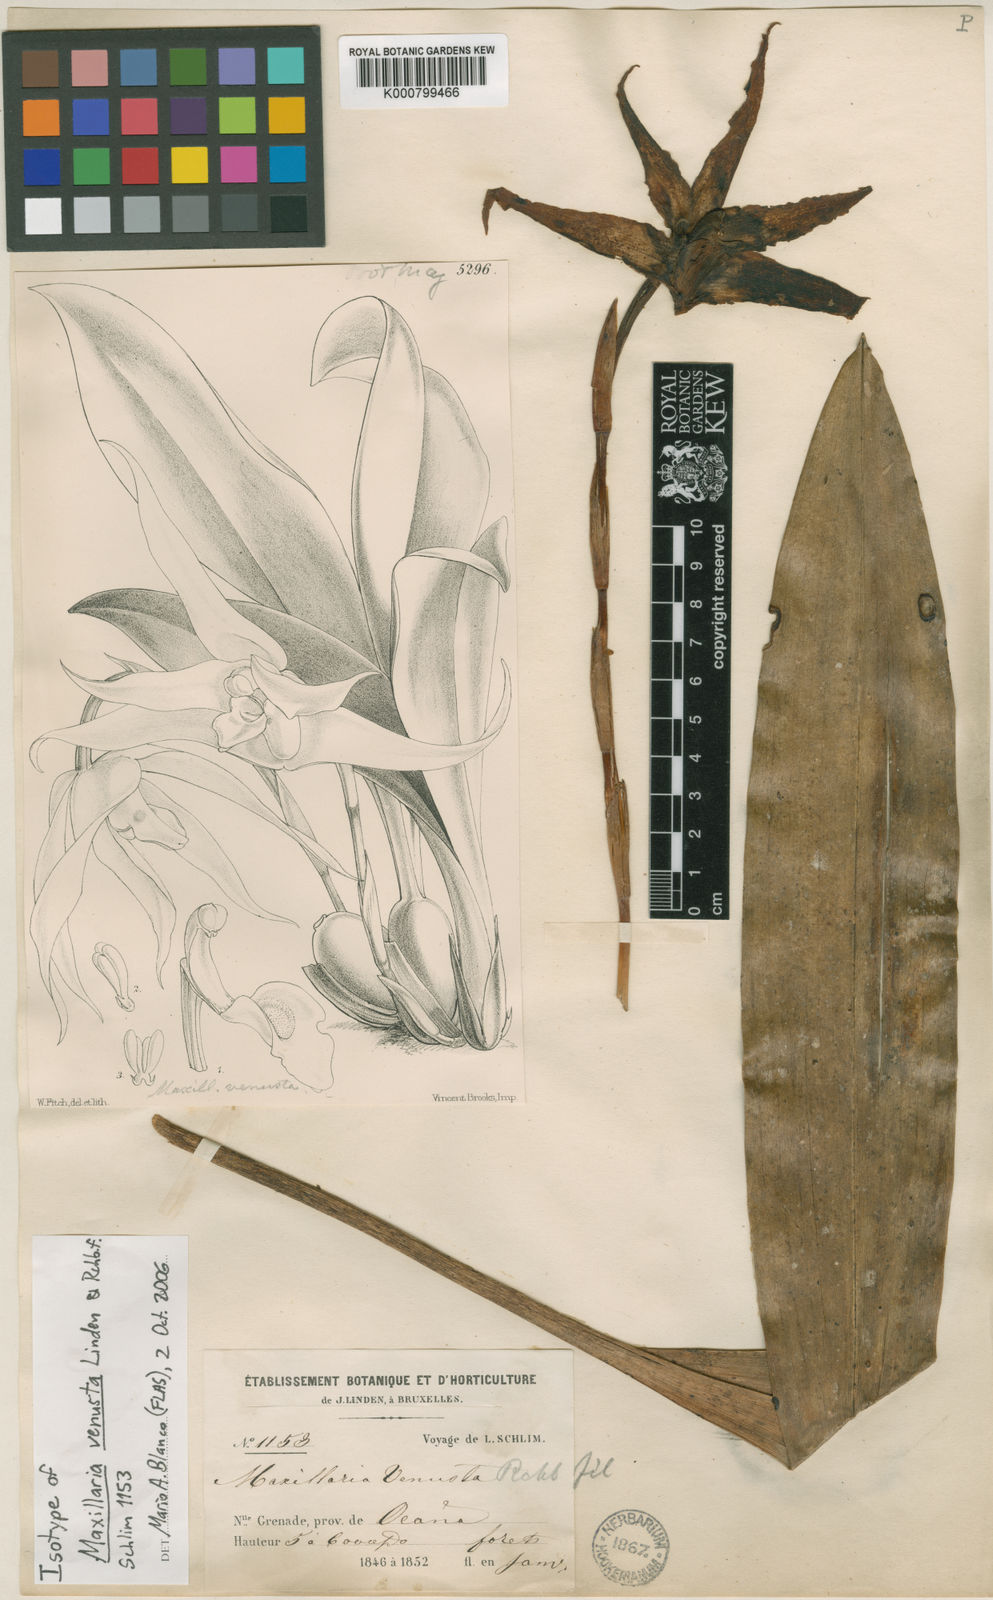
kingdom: Plantae
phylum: Tracheophyta
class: Liliopsida
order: Asparagales
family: Orchidaceae
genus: Maxillaria
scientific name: Maxillaria venusta
